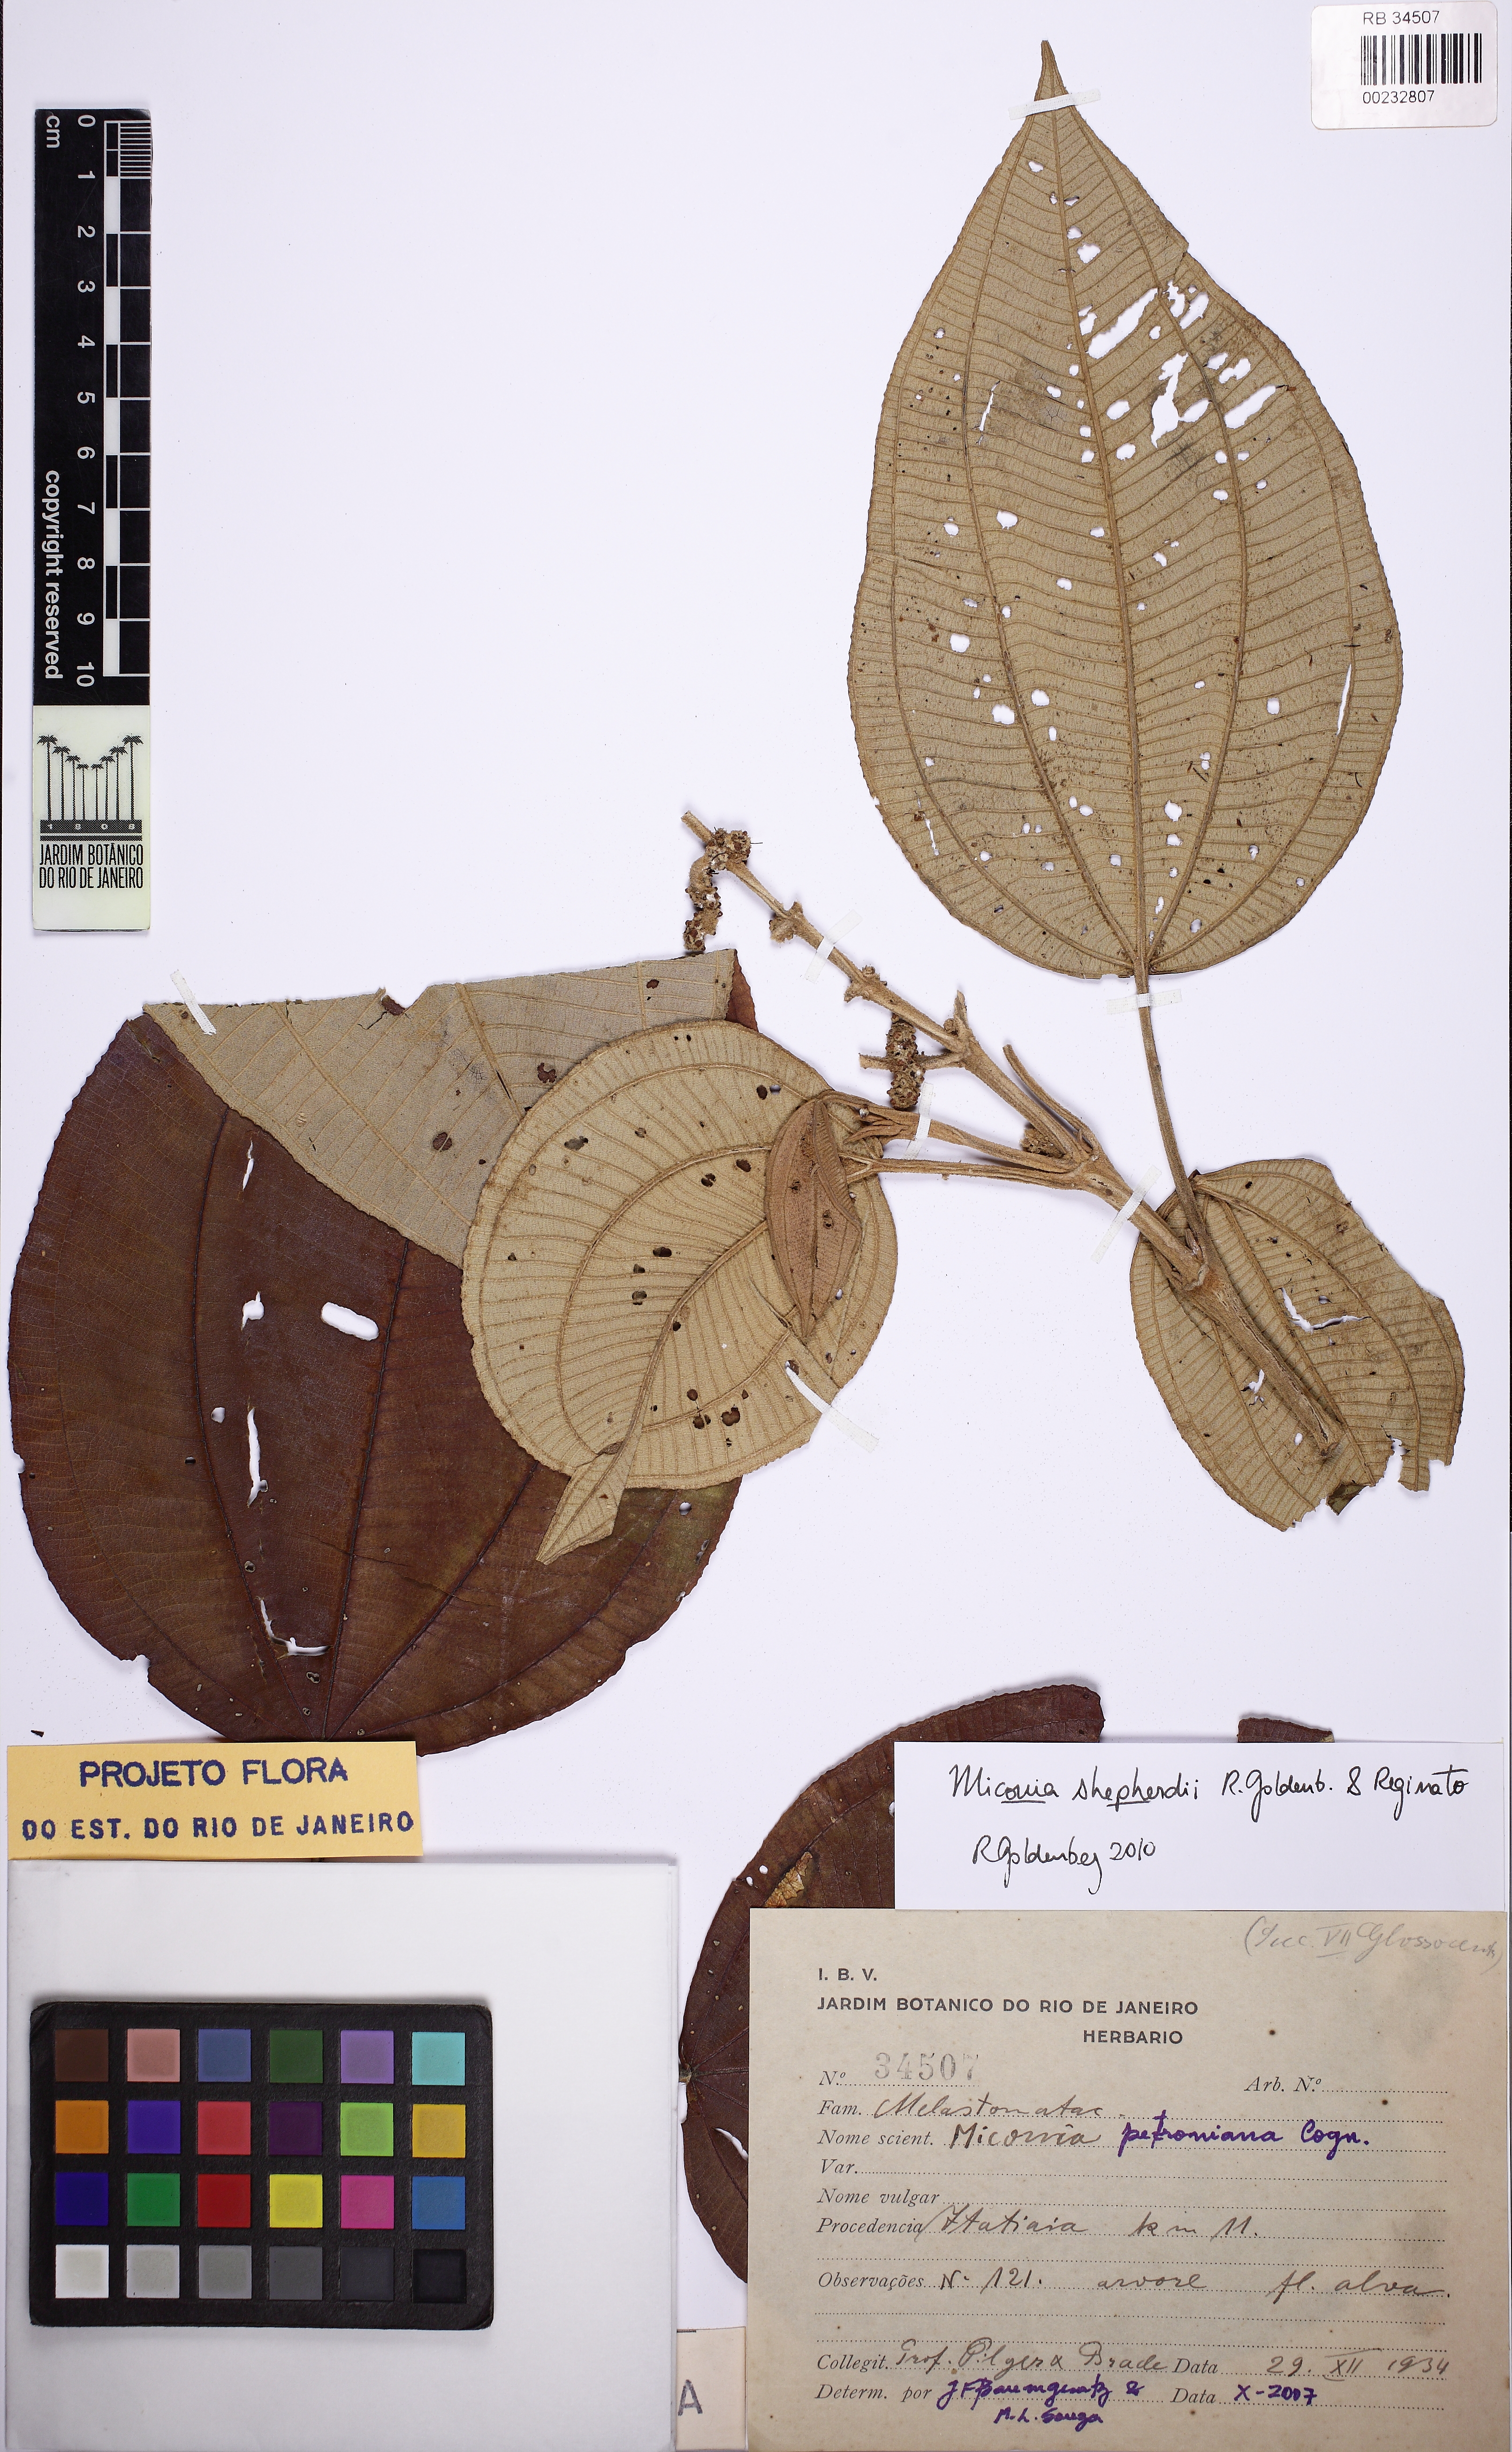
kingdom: Plantae
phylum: Tracheophyta
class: Magnoliopsida
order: Myrtales
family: Melastomataceae
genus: Miconia
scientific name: Miconia shepherdii
